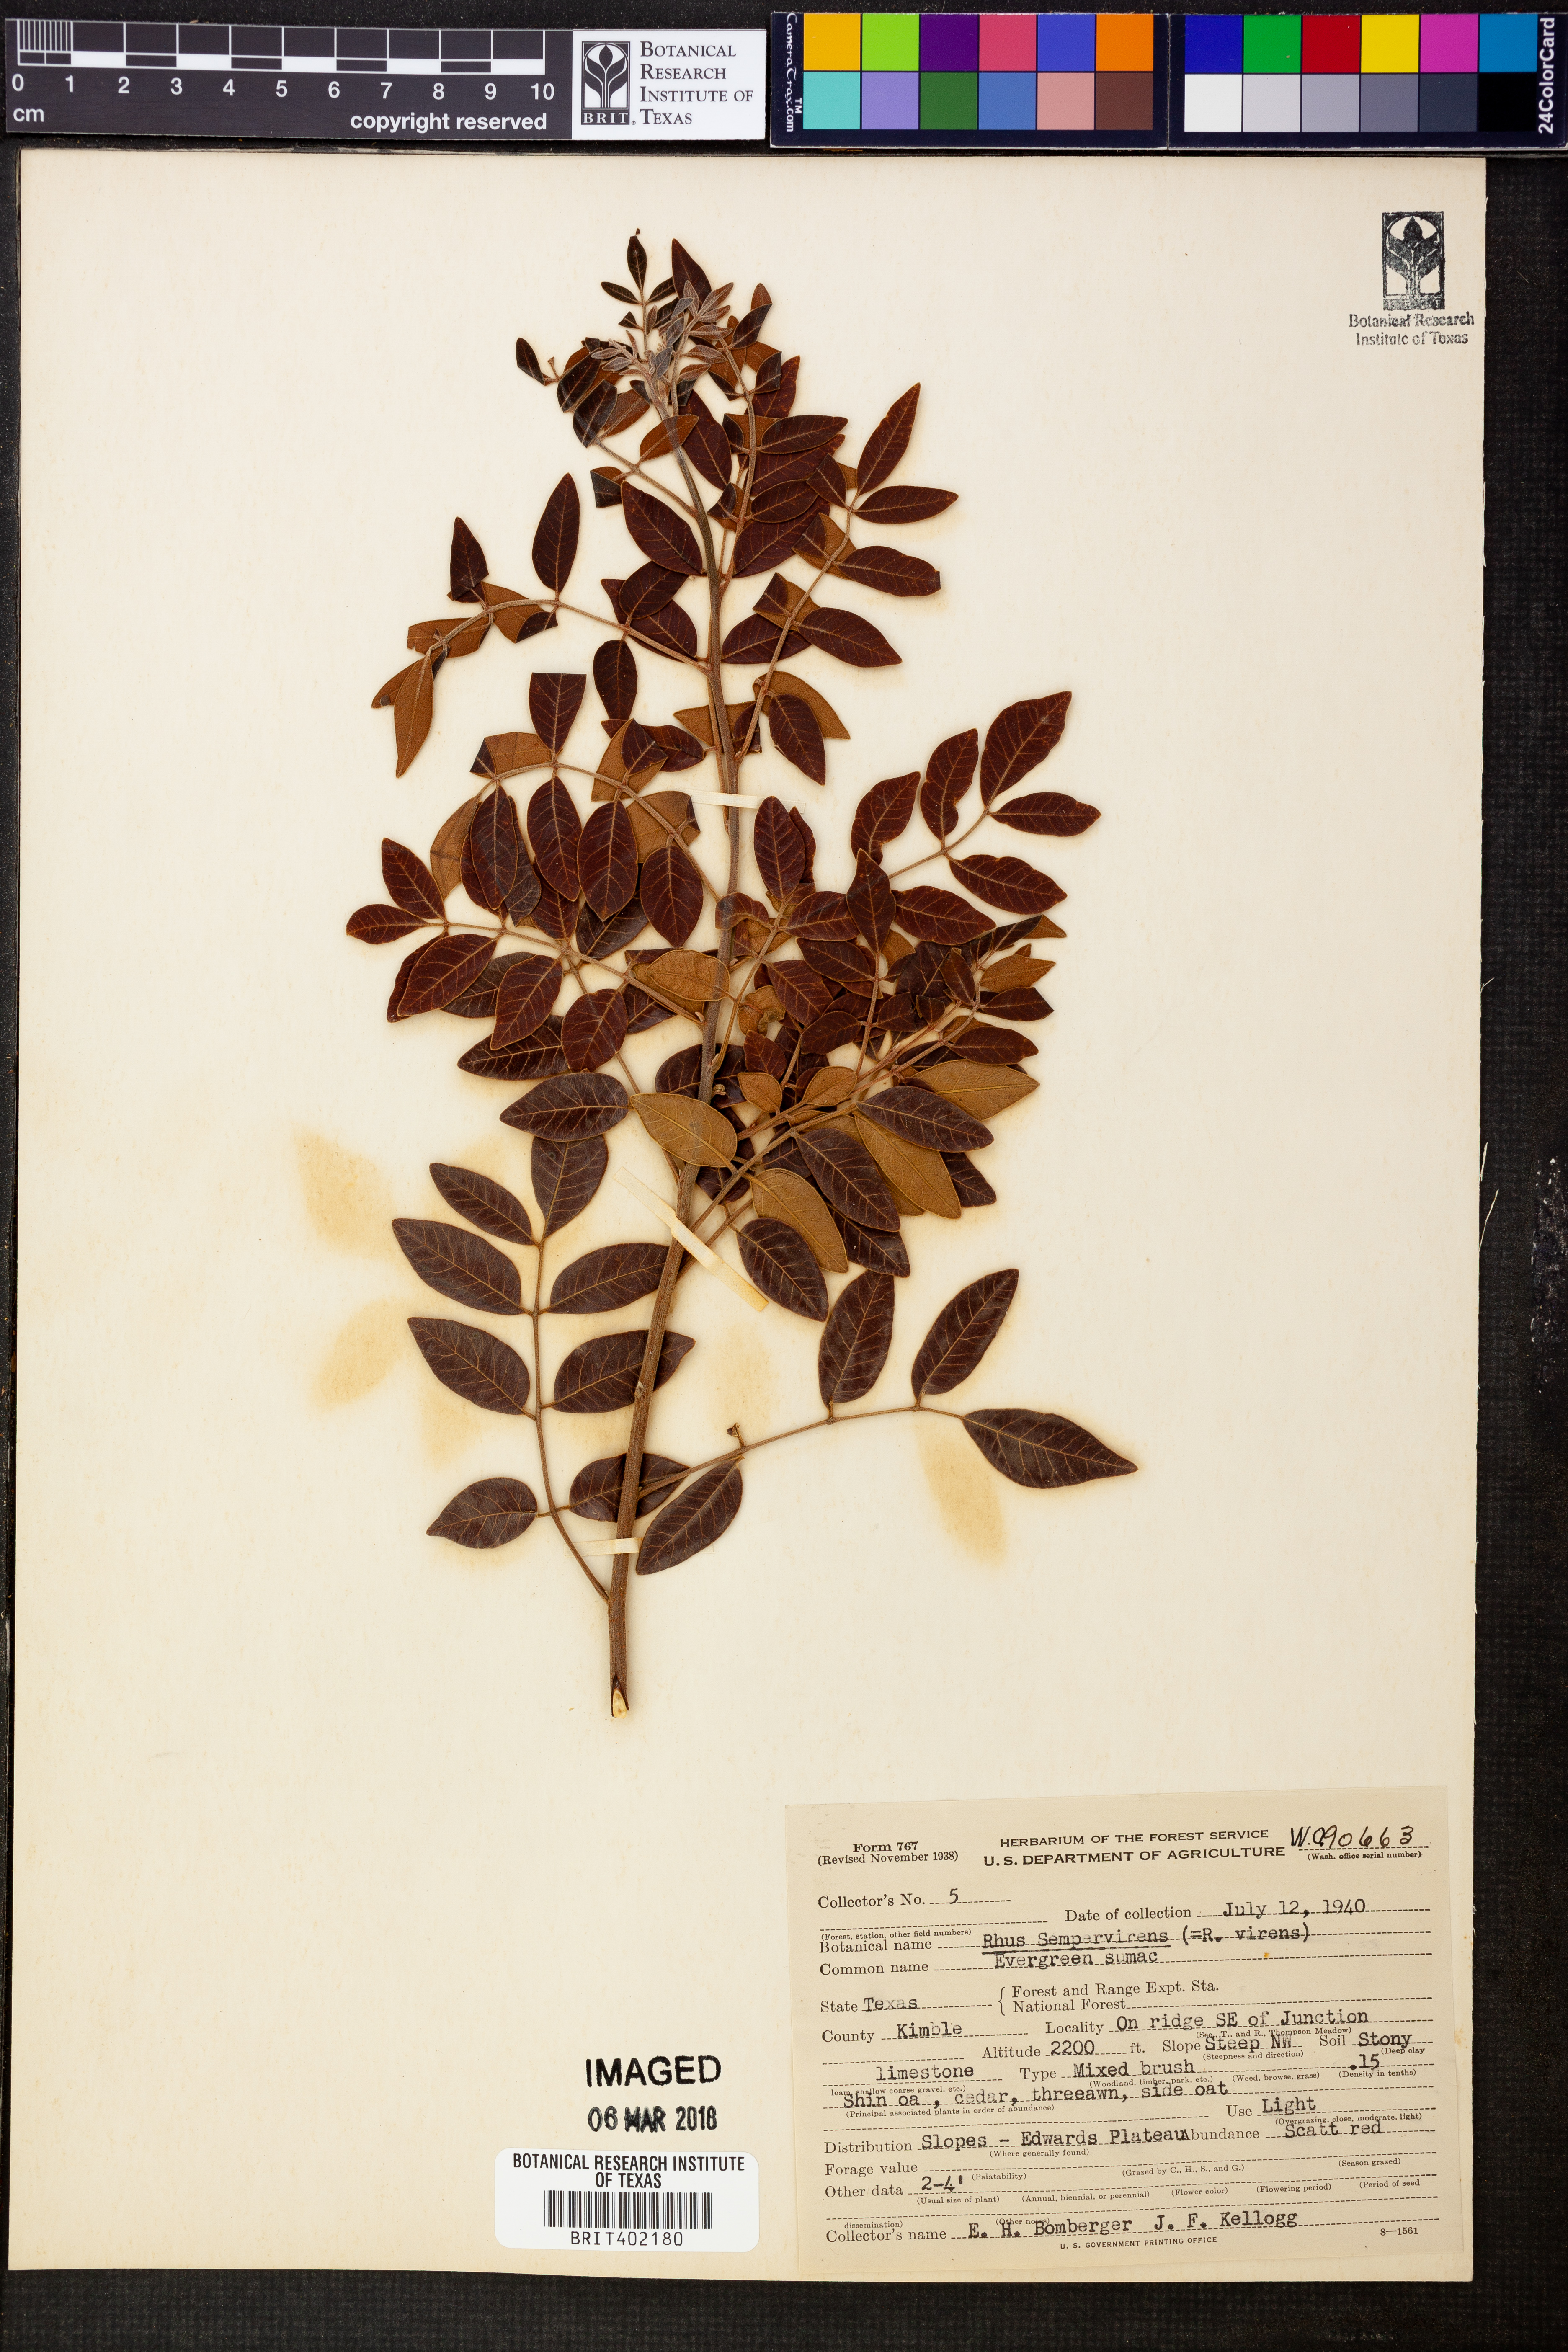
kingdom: Plantae
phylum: Tracheophyta
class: Magnoliopsida
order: Sapindales
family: Anacardiaceae
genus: Rhus
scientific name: Rhus virens
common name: Evergreen sumac
